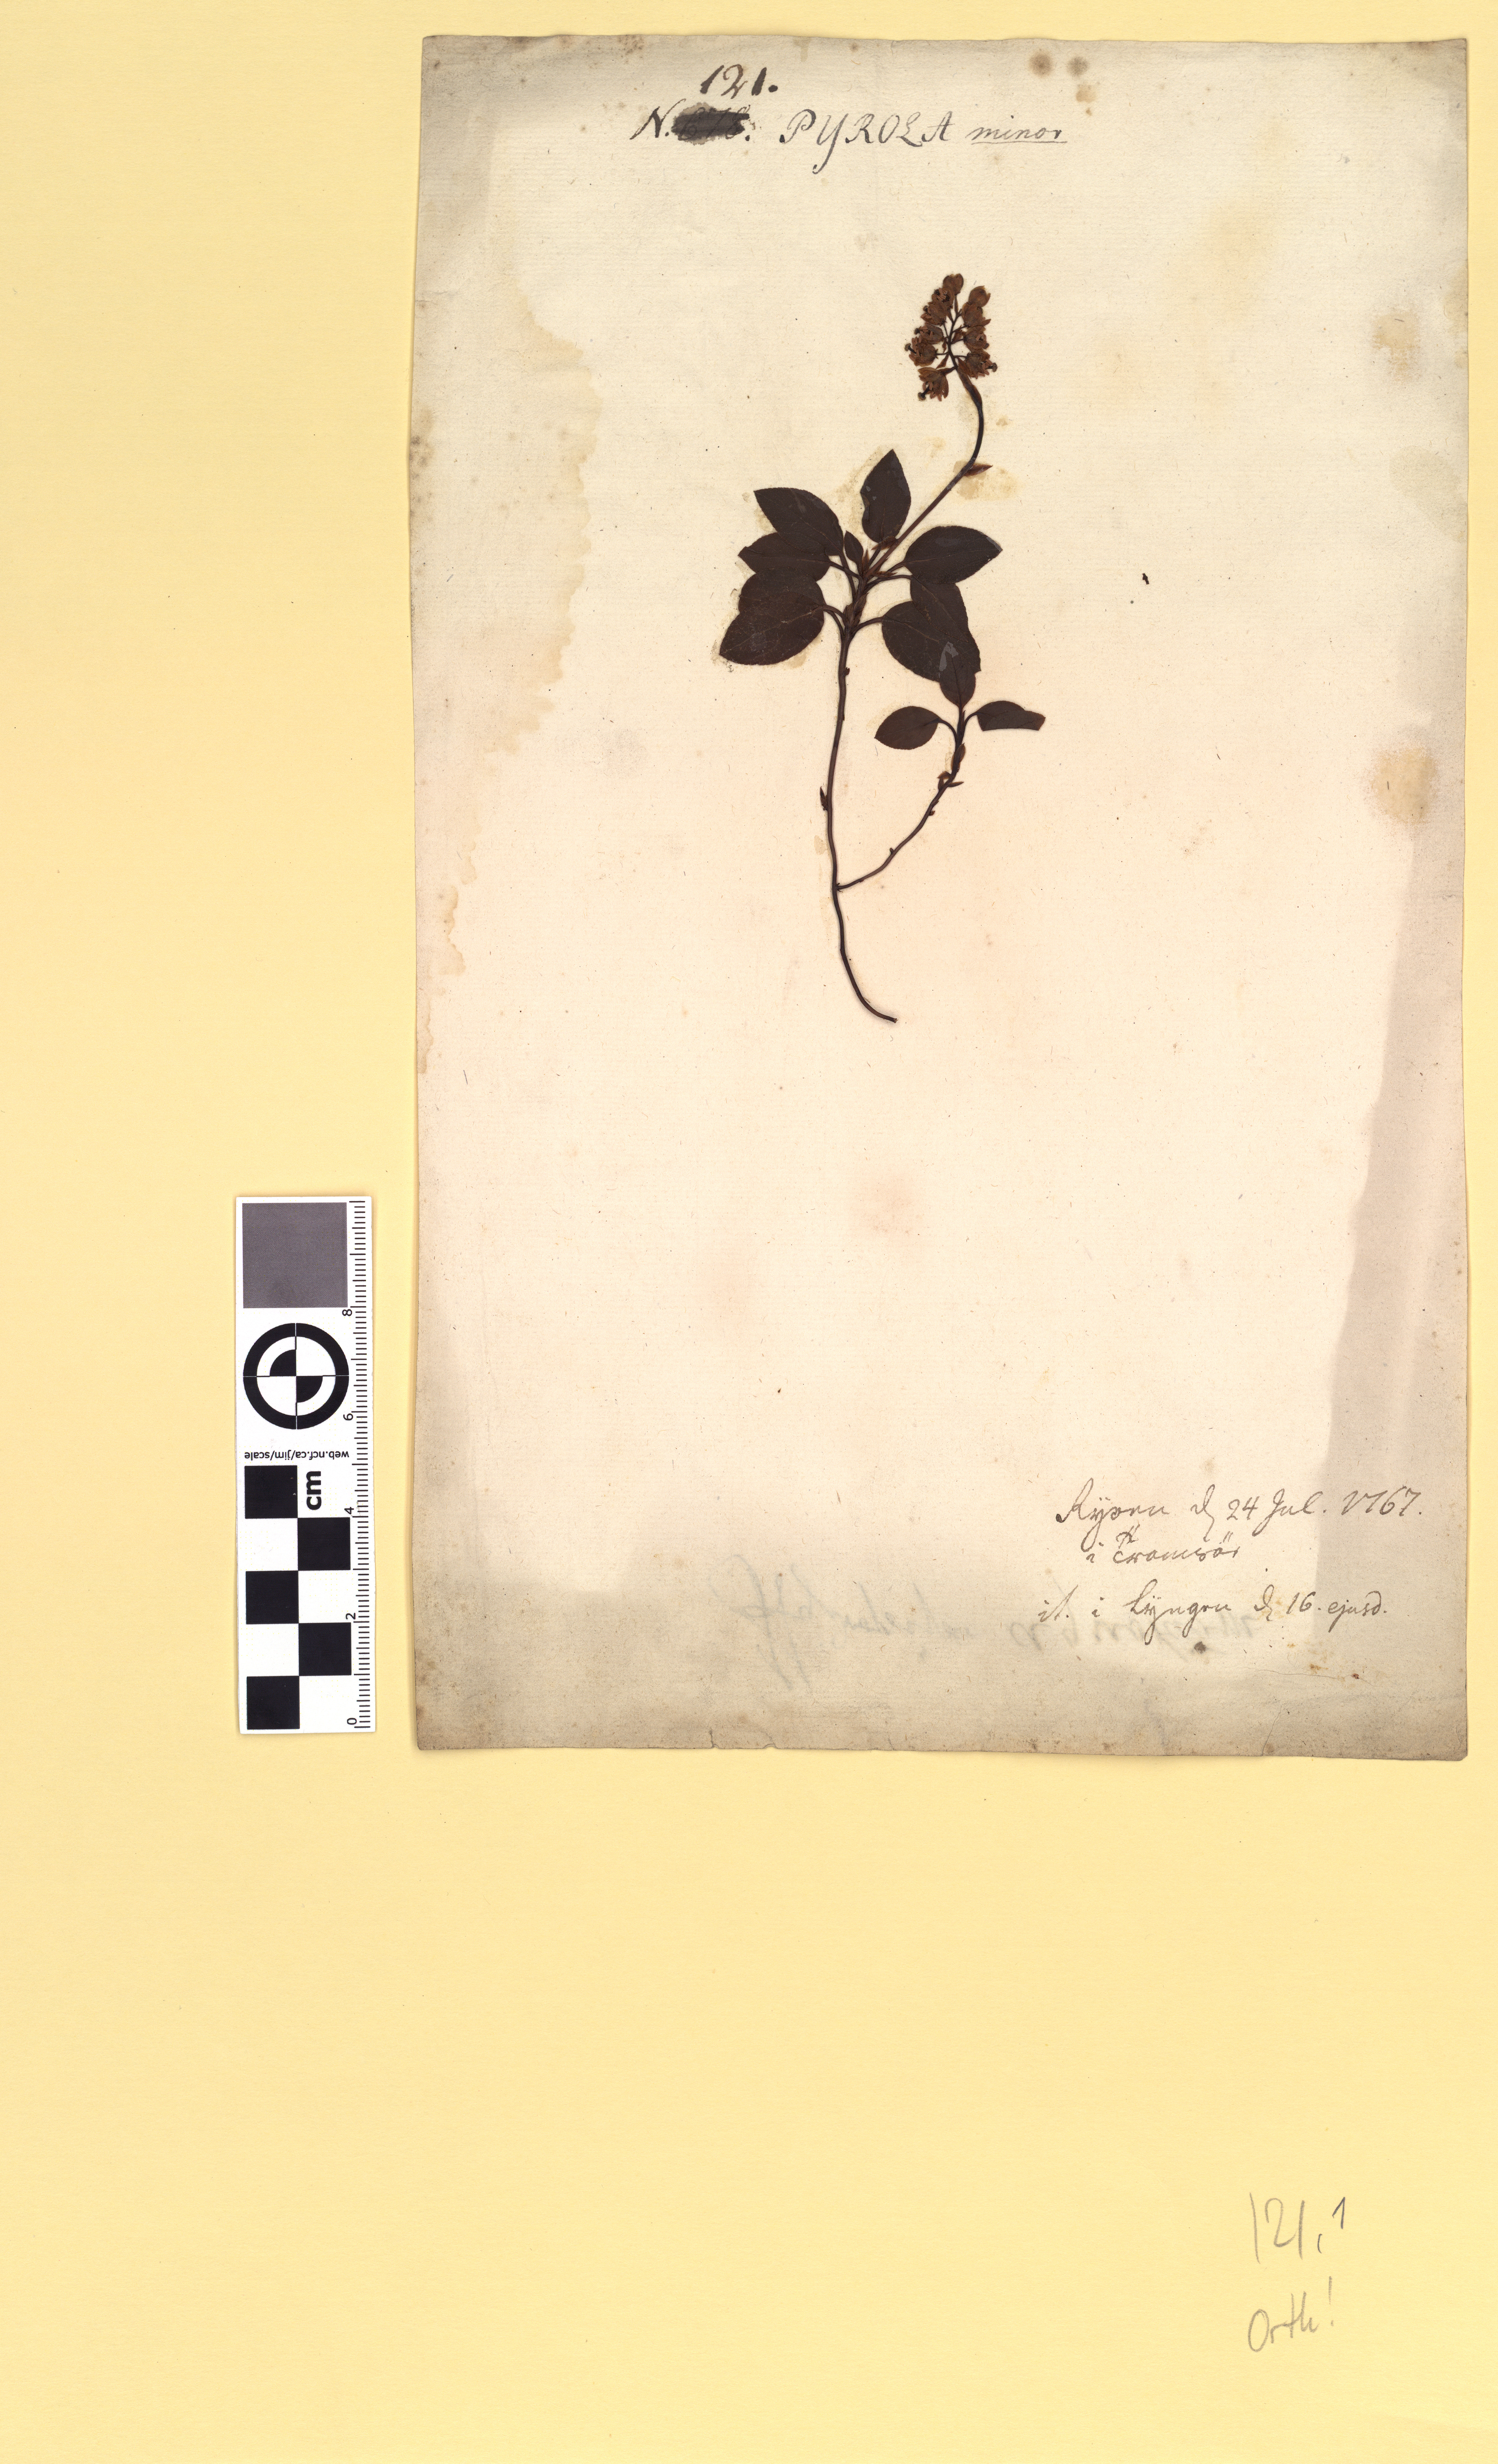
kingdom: Plantae
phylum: Tracheophyta
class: Magnoliopsida
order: Ericales
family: Ericaceae
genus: Orthilia
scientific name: Orthilia secunda
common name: One-sided orthilia
